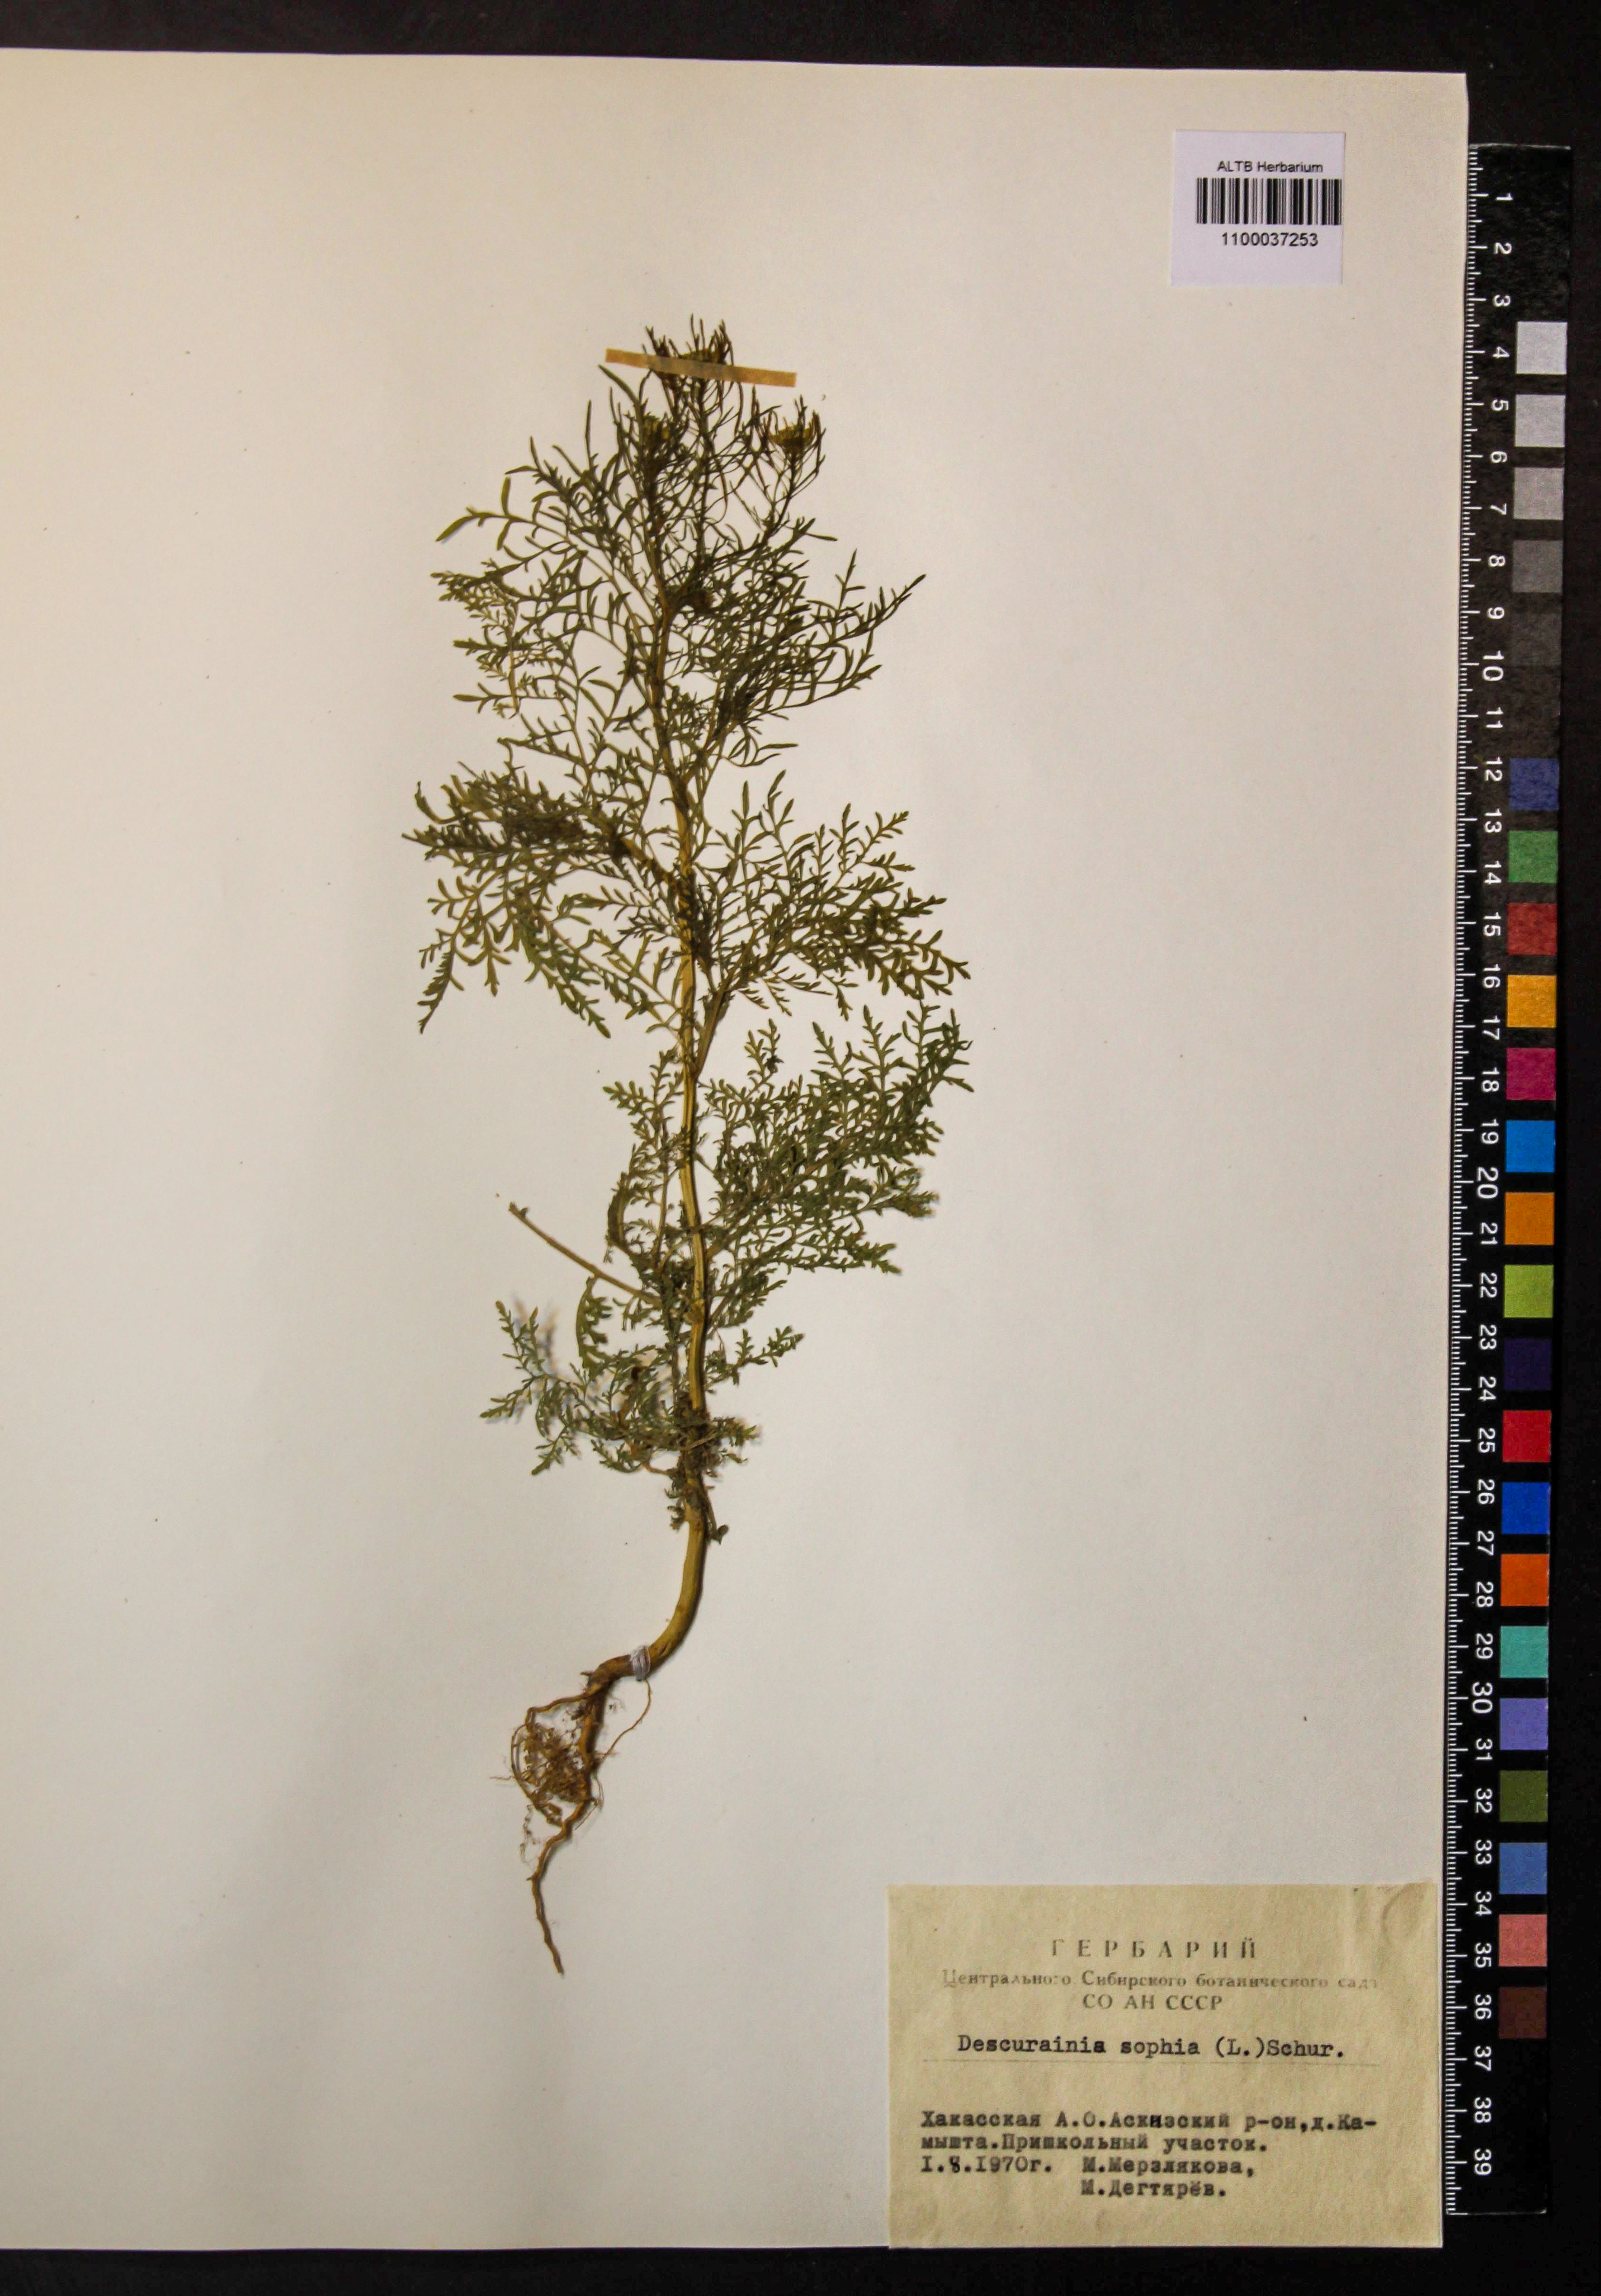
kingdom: Plantae
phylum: Tracheophyta
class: Magnoliopsida
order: Brassicales
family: Brassicaceae
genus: Descurainia
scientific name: Descurainia sophia
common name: Flixweed
